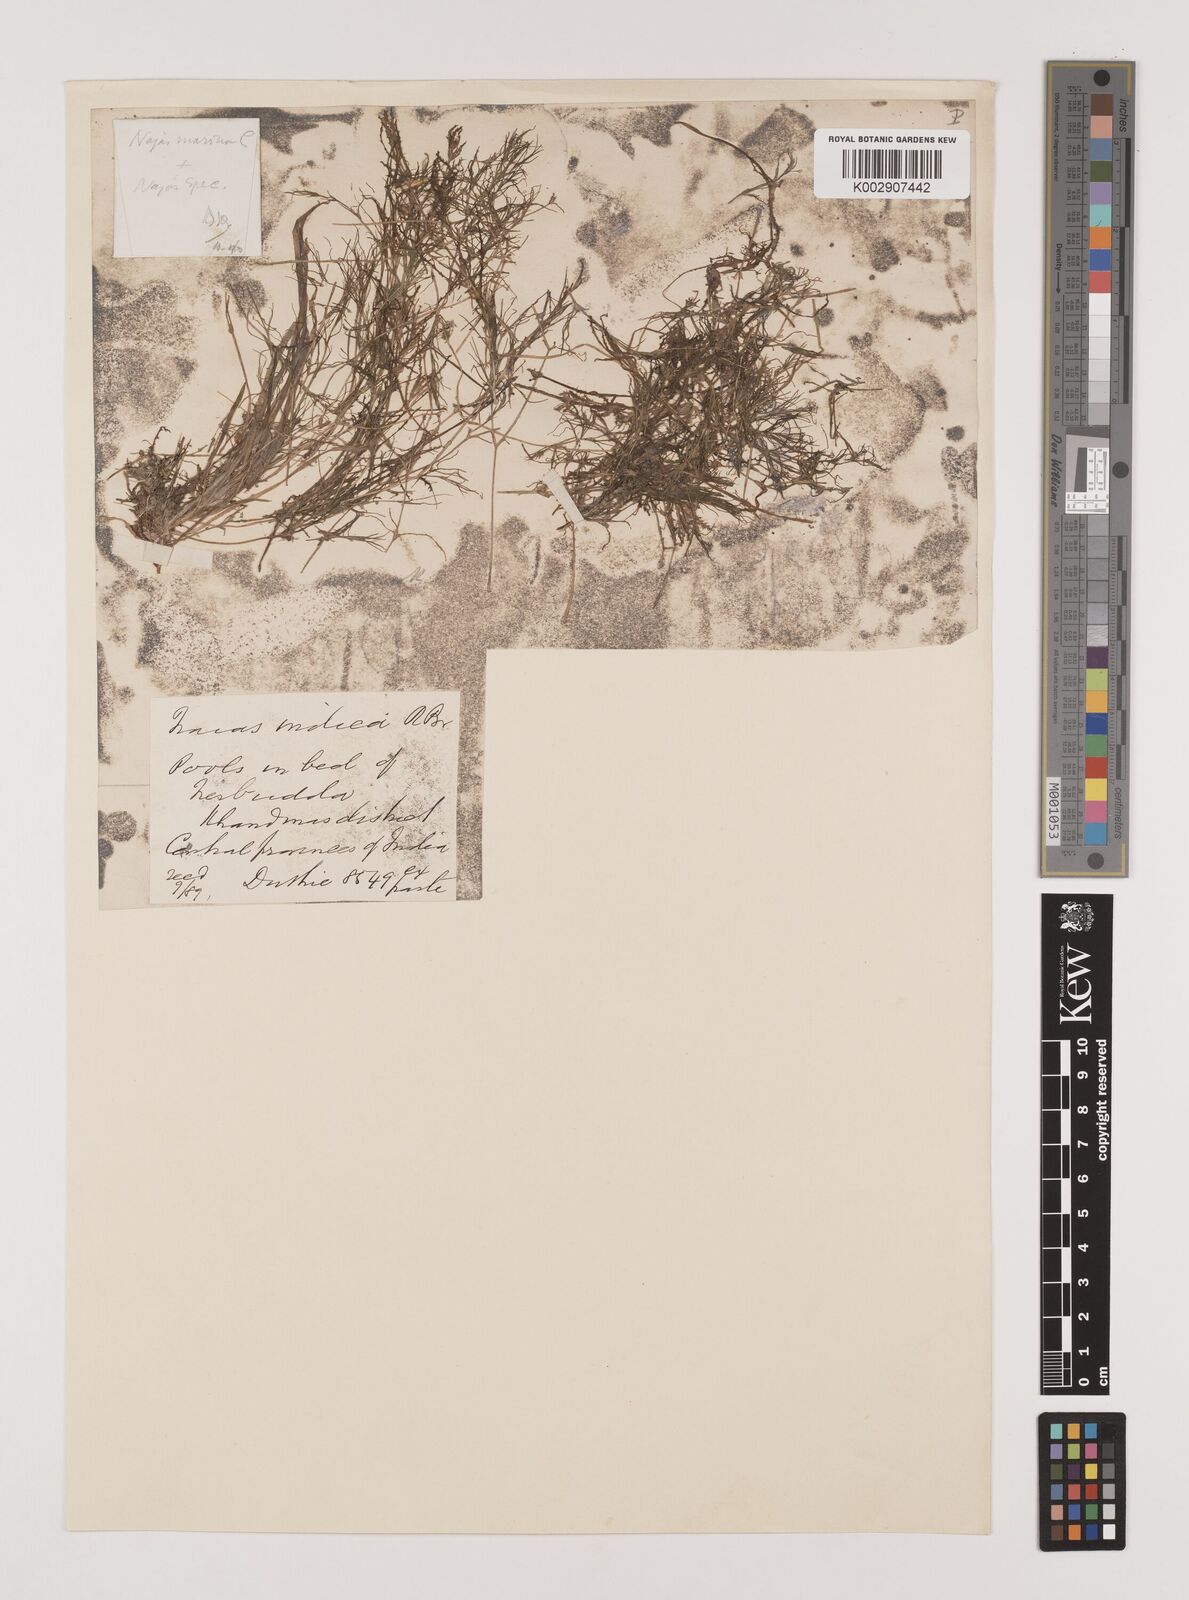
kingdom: Plantae
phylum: Tracheophyta
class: Liliopsida
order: Alismatales
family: Hydrocharitaceae
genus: Najas
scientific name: Najas indica
